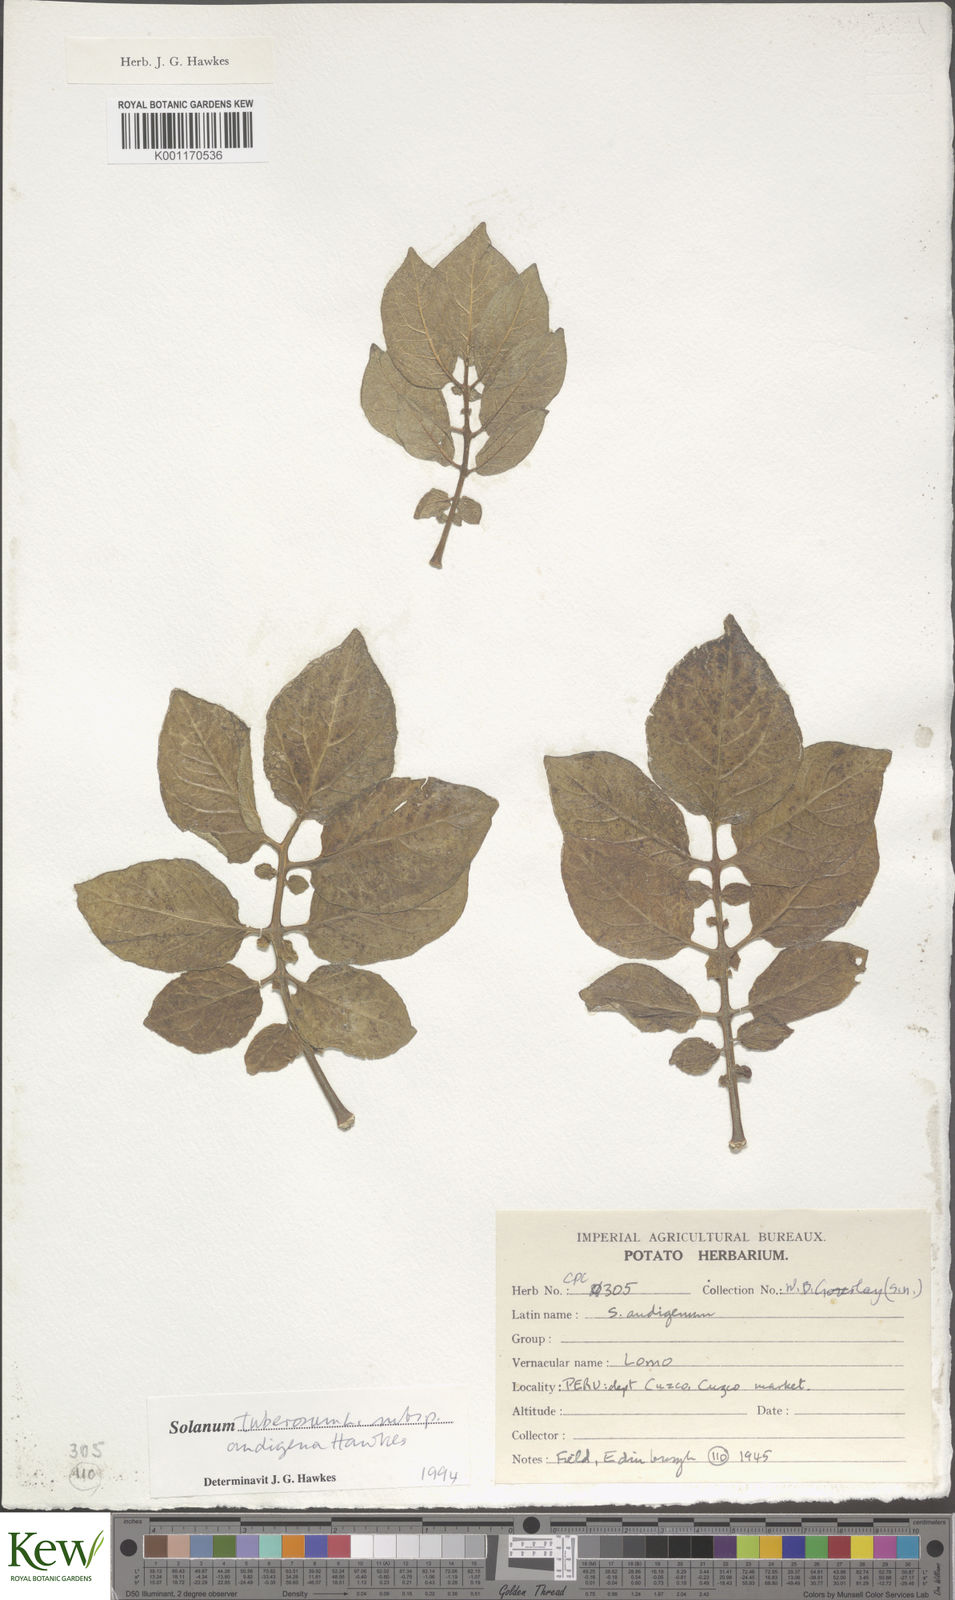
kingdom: Plantae
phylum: Tracheophyta
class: Magnoliopsida
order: Solanales
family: Solanaceae
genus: Solanum
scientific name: Solanum tuberosum
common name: Potato
